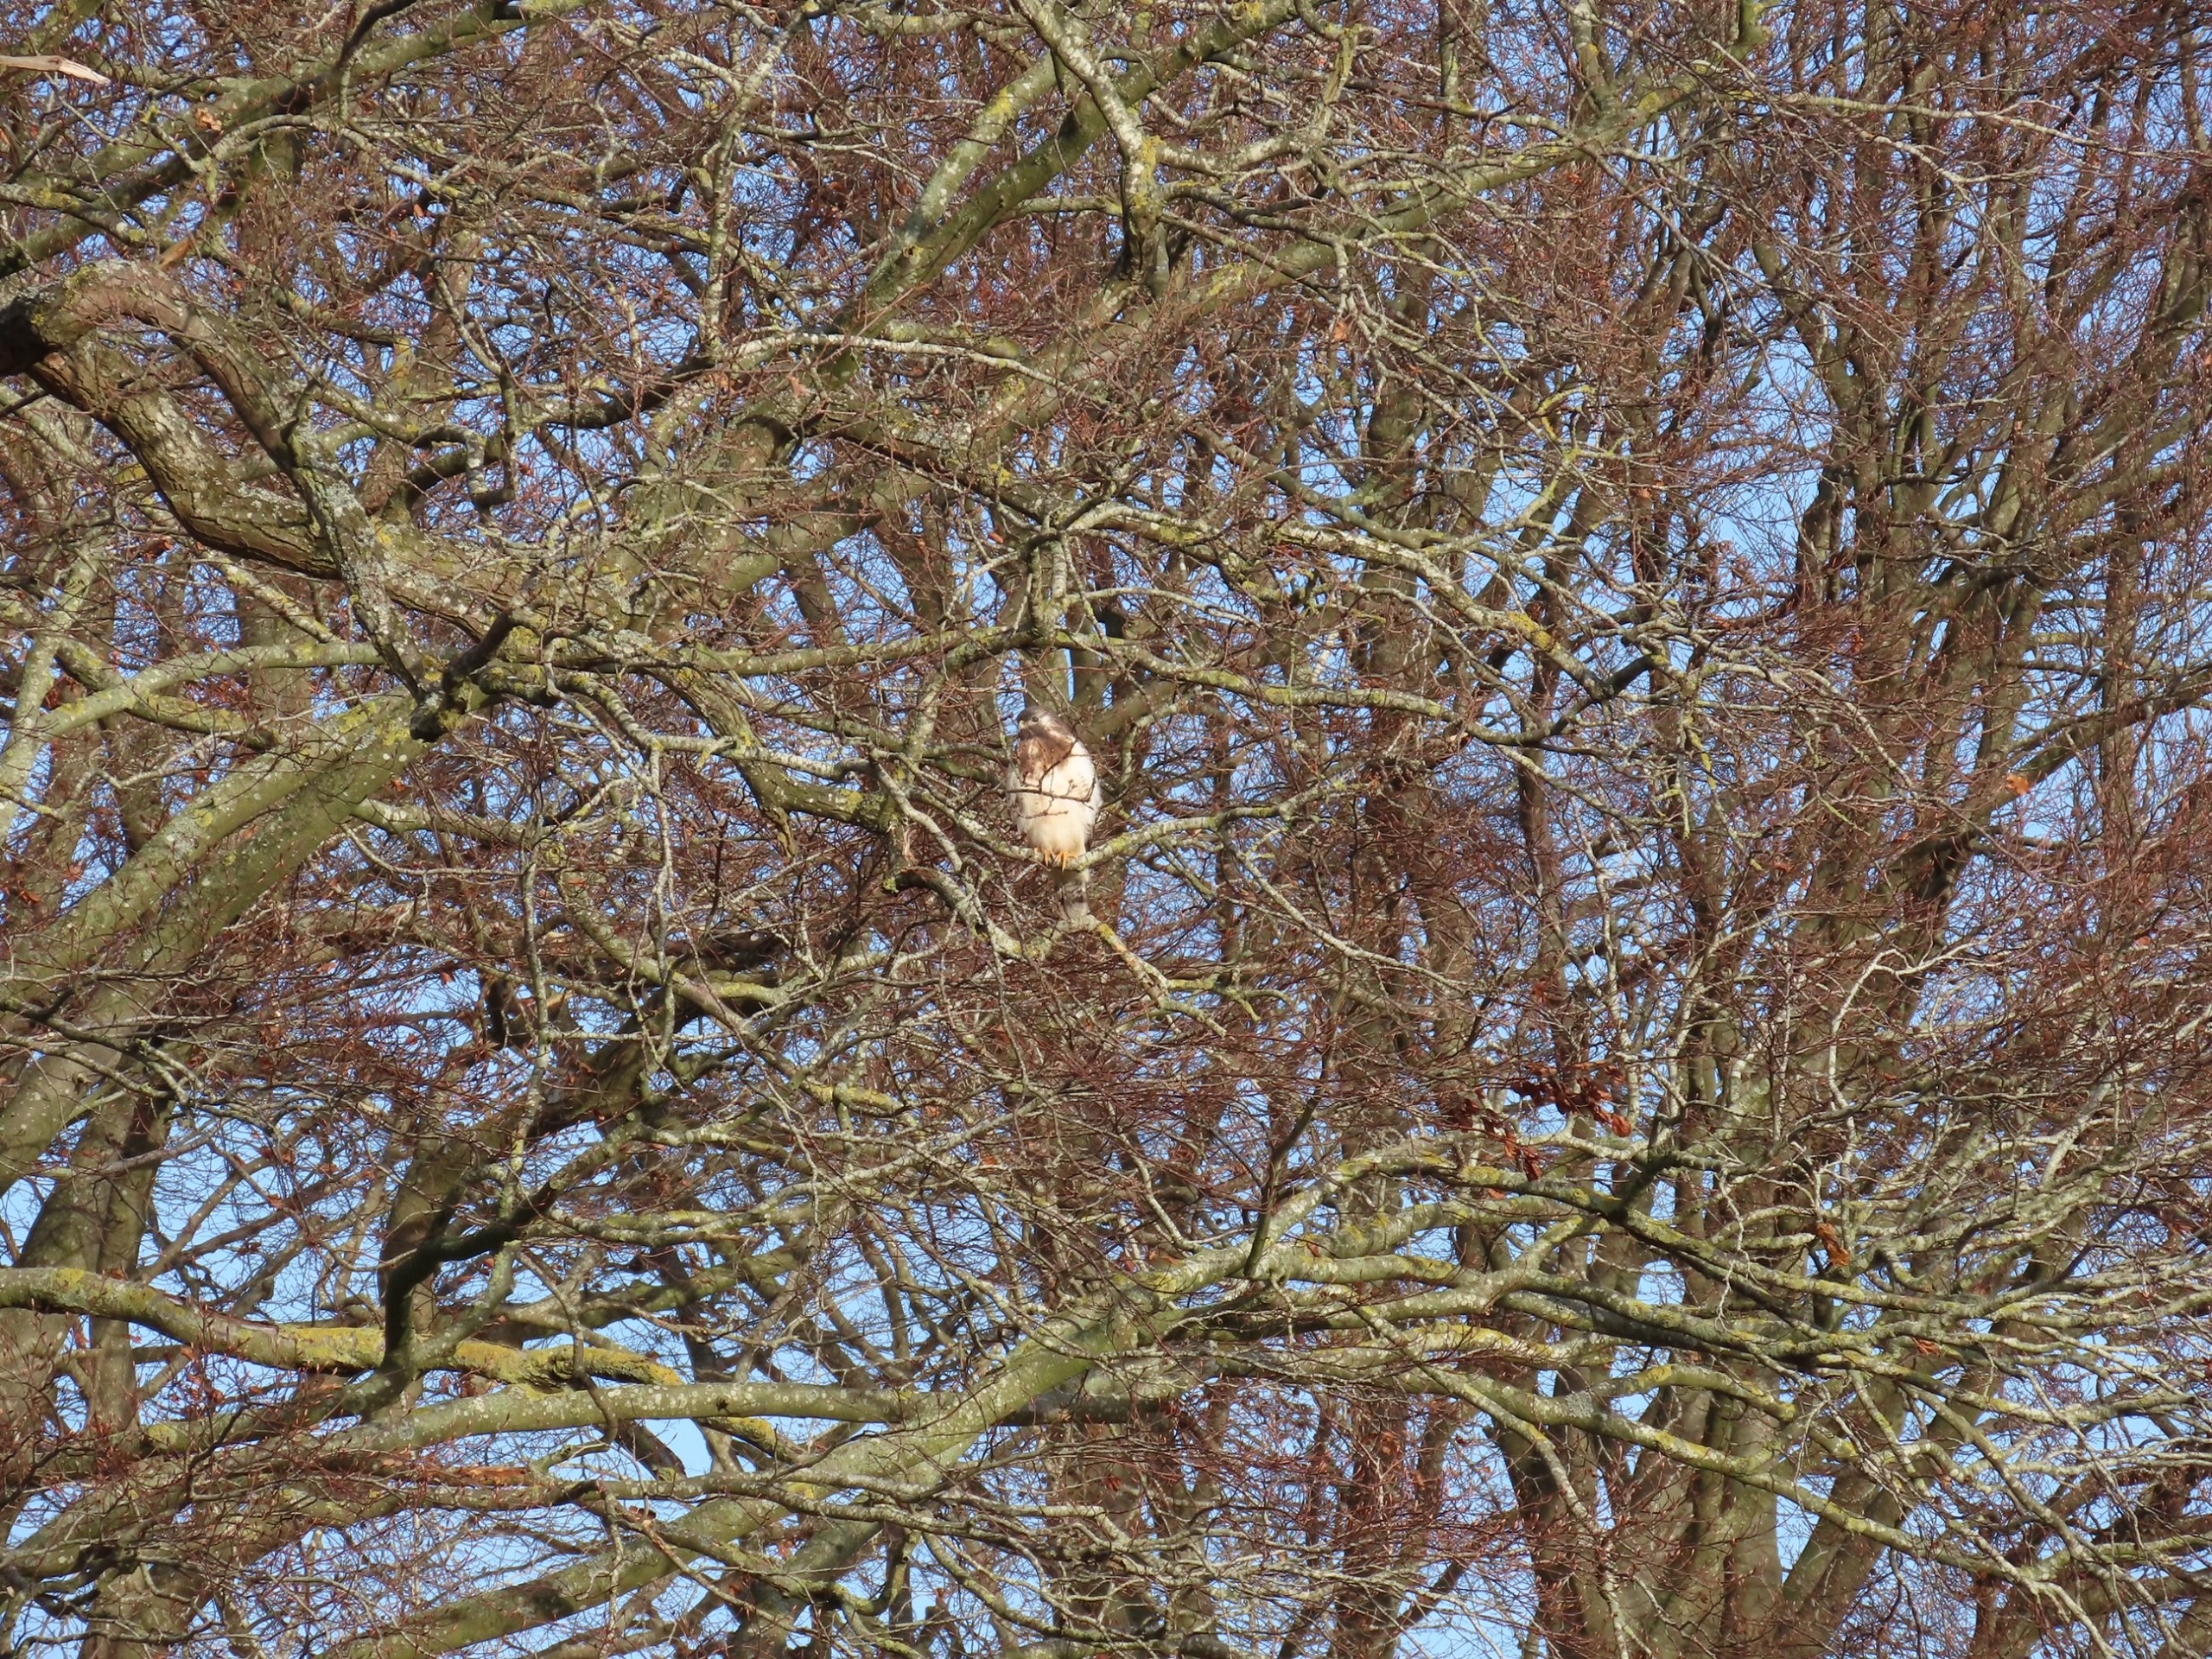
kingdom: Animalia
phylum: Chordata
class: Aves
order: Accipitriformes
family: Accipitridae
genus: Buteo
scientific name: Buteo buteo
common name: Musvåge
